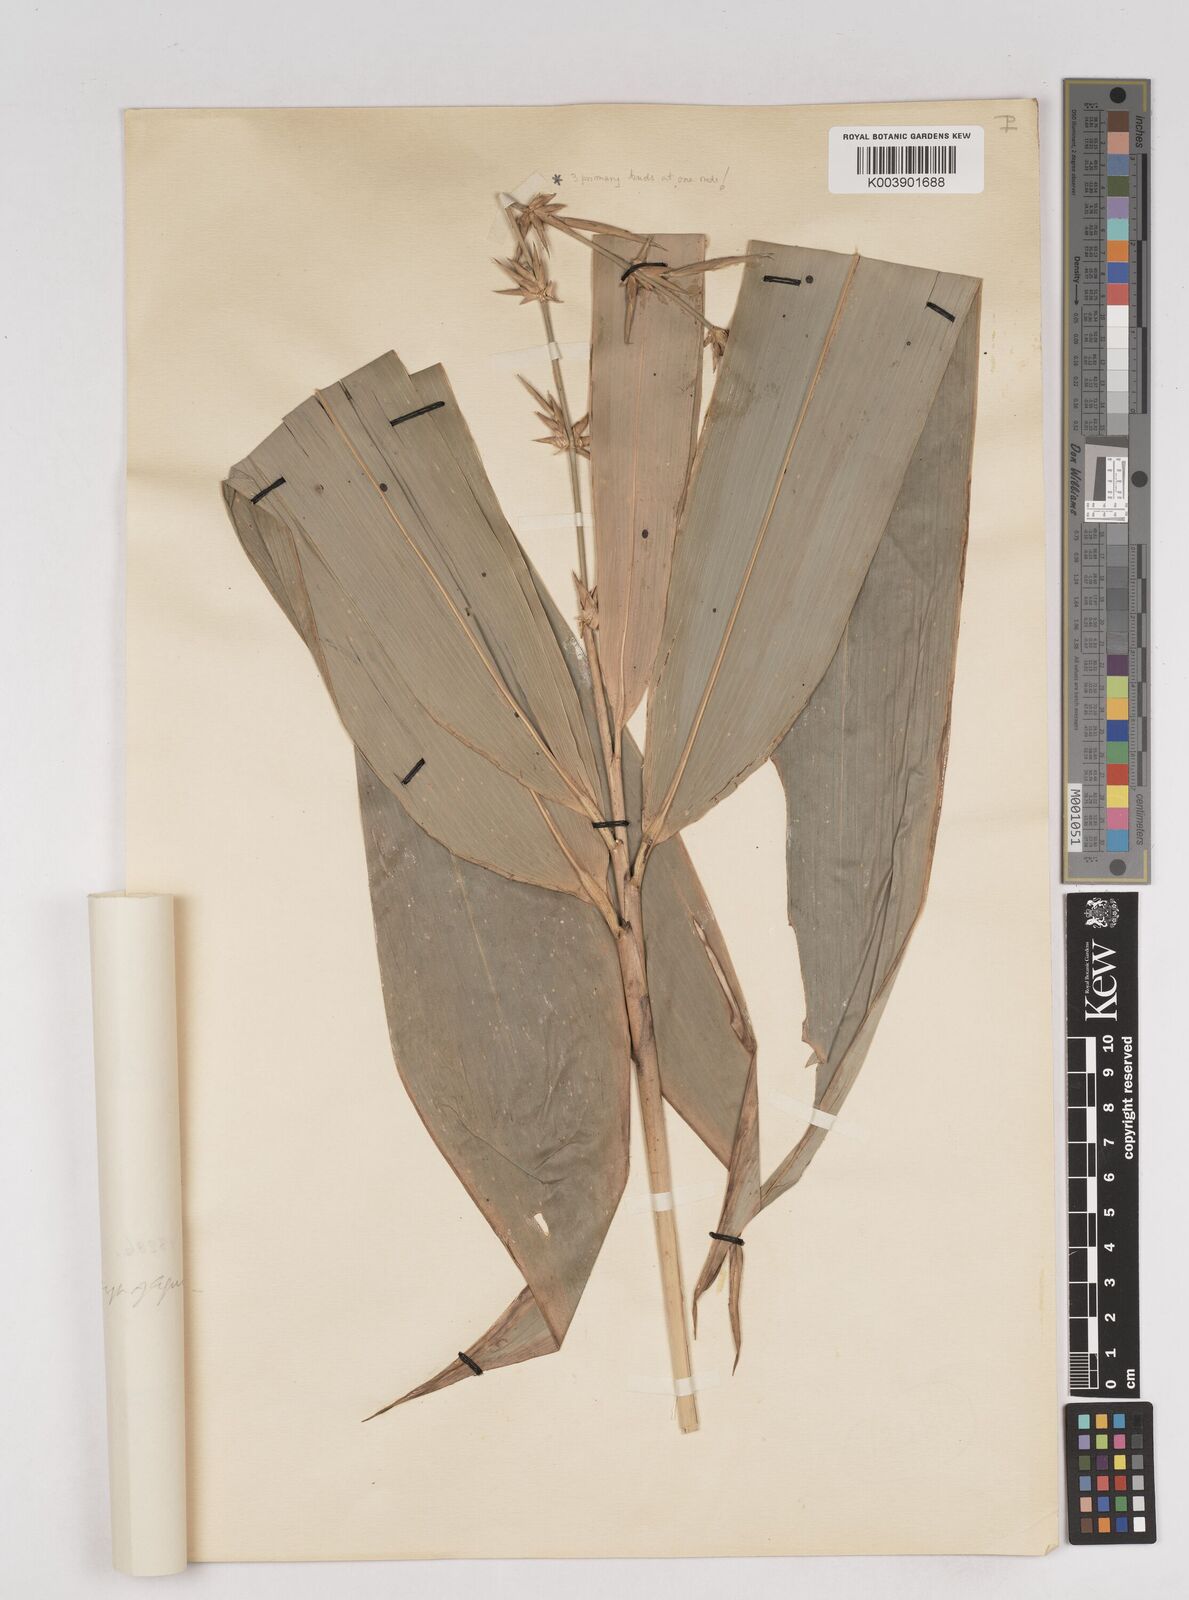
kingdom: Plantae
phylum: Tracheophyta
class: Liliopsida
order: Poales
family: Poaceae
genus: Schizostachyum
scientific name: Schizostachyum distans
